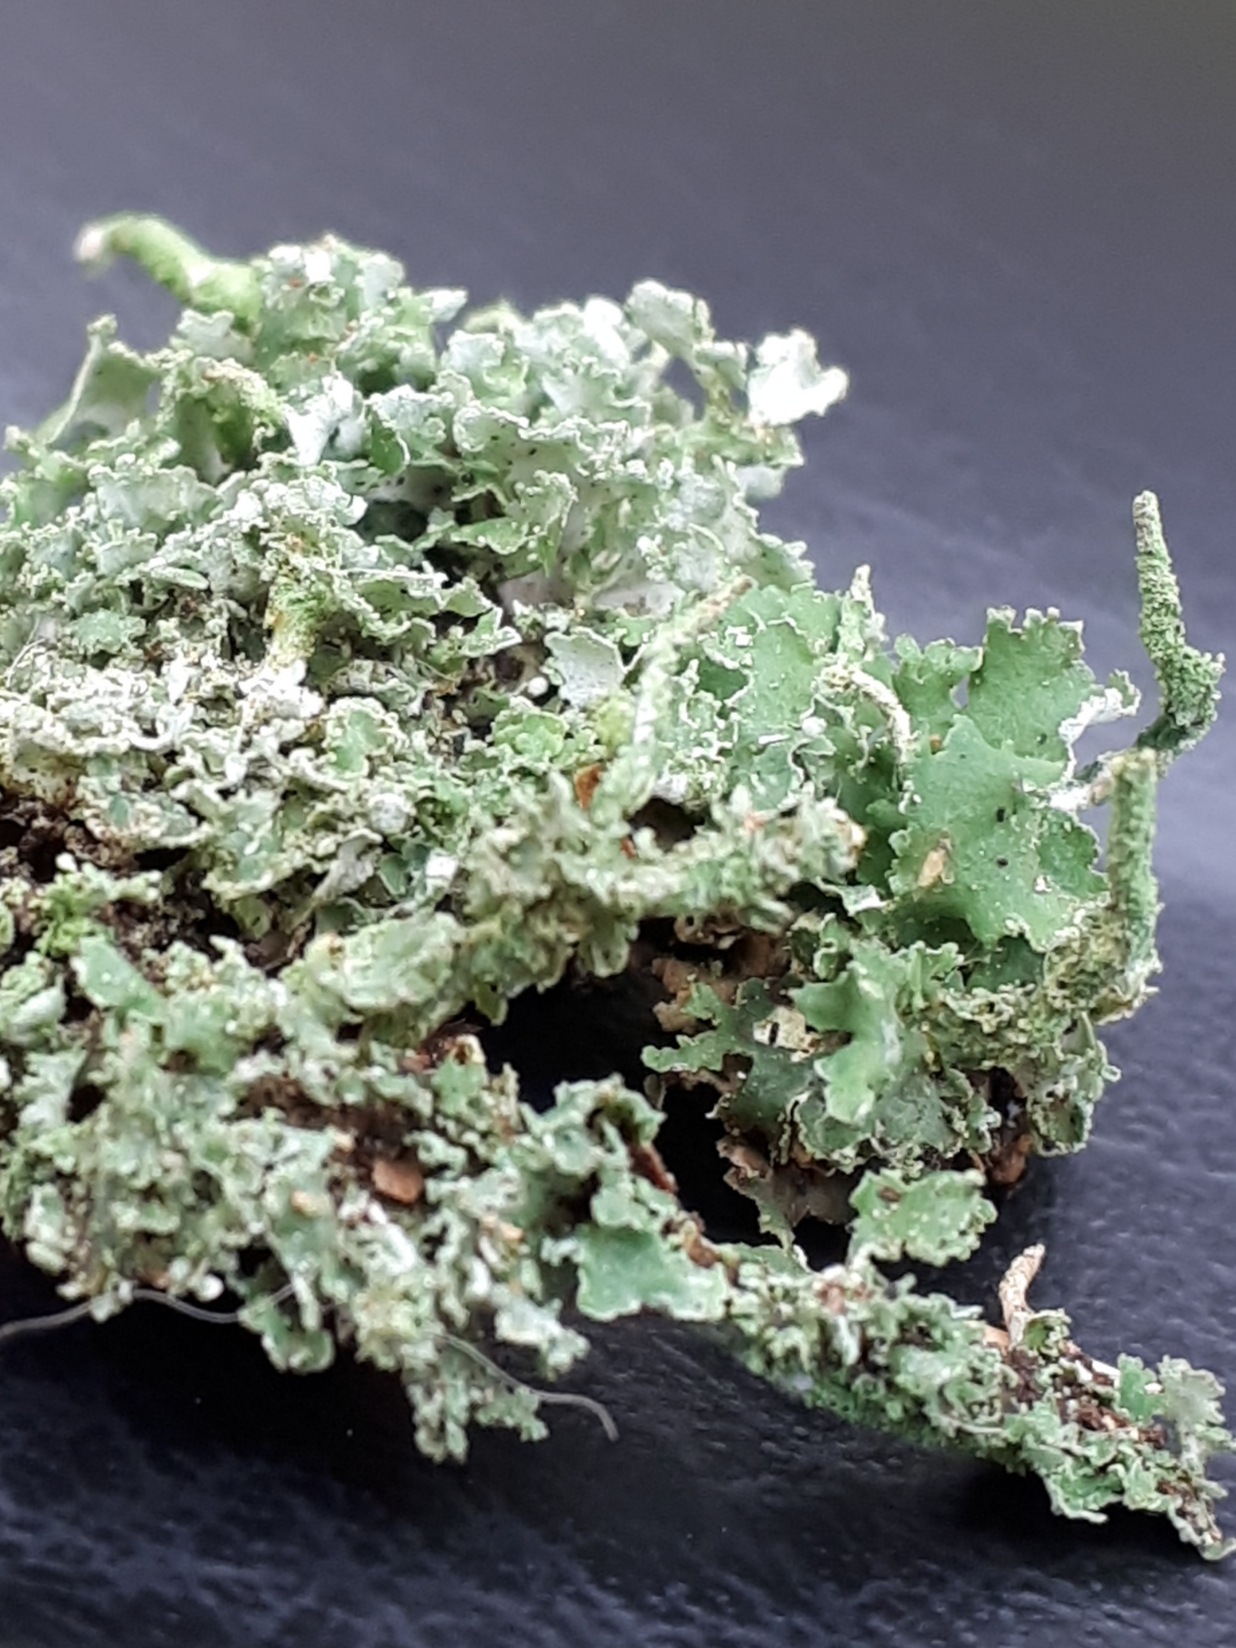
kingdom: Fungi
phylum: Ascomycota
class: Lecanoromycetes
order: Lecanorales
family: Cladoniaceae
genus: Cladonia
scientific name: Cladonia
